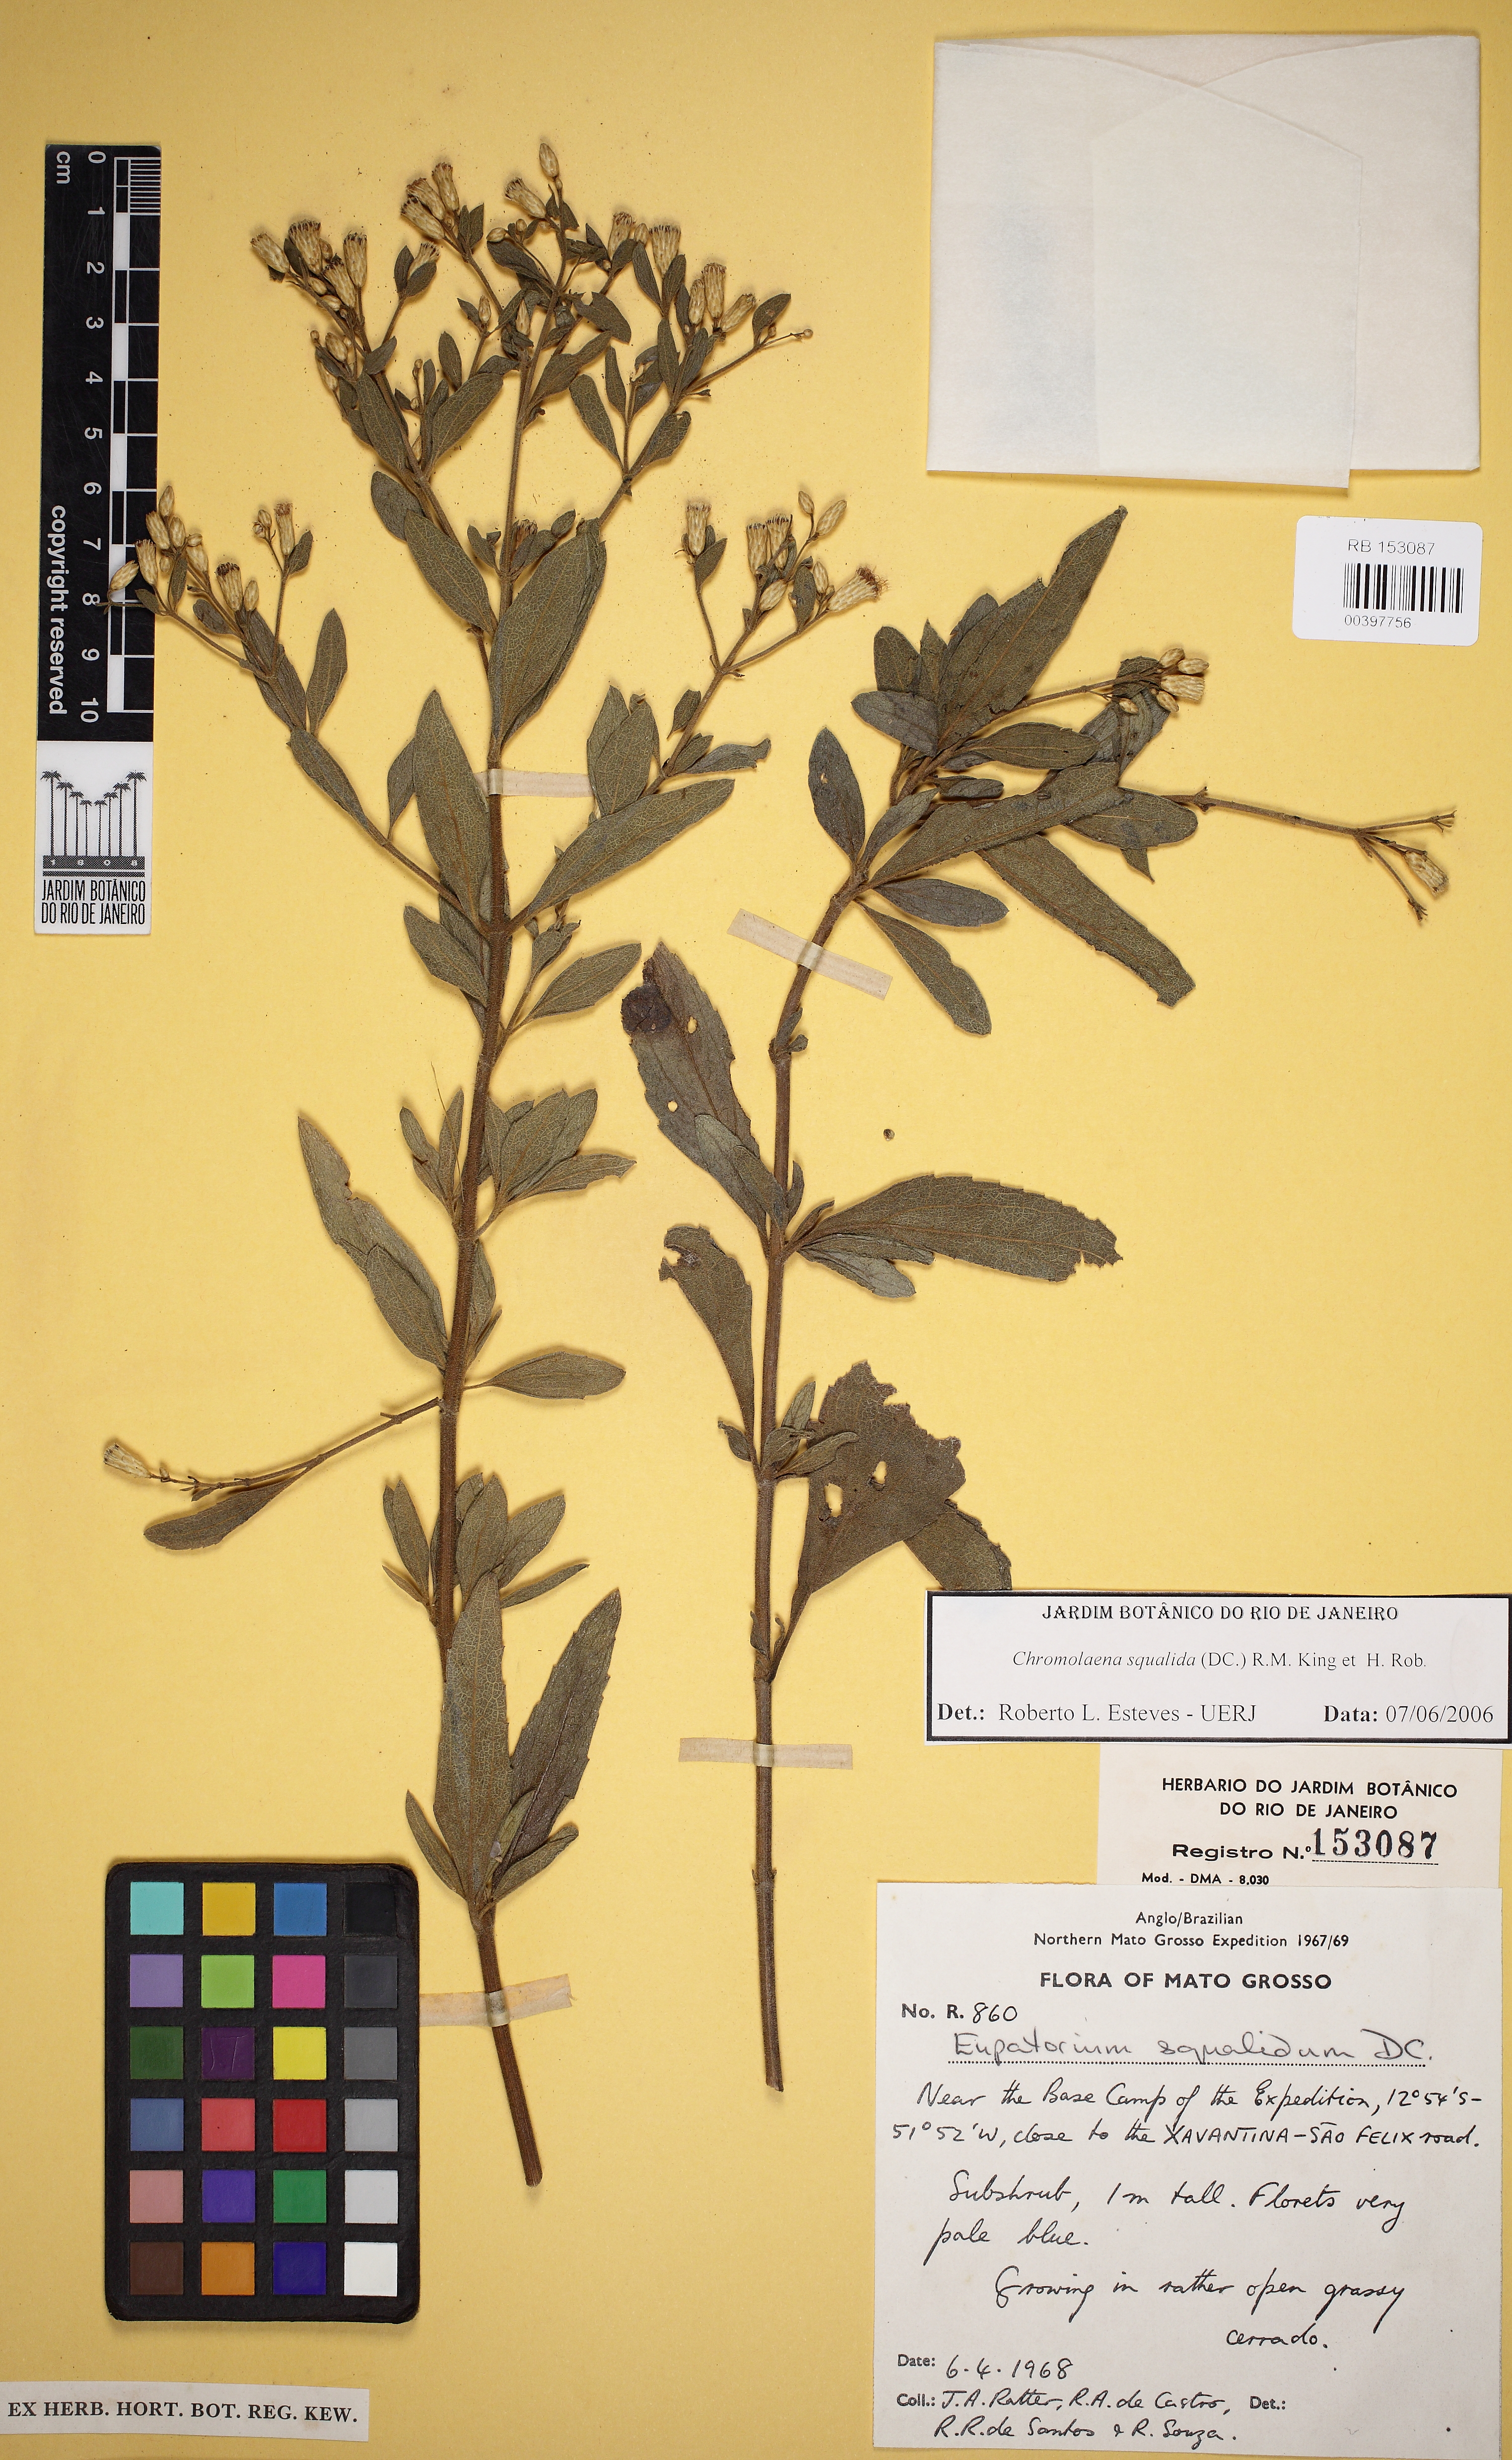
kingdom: Plantae
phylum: Tracheophyta
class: Magnoliopsida
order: Asterales
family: Asteraceae
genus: Chromolaena
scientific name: Chromolaena squalida
